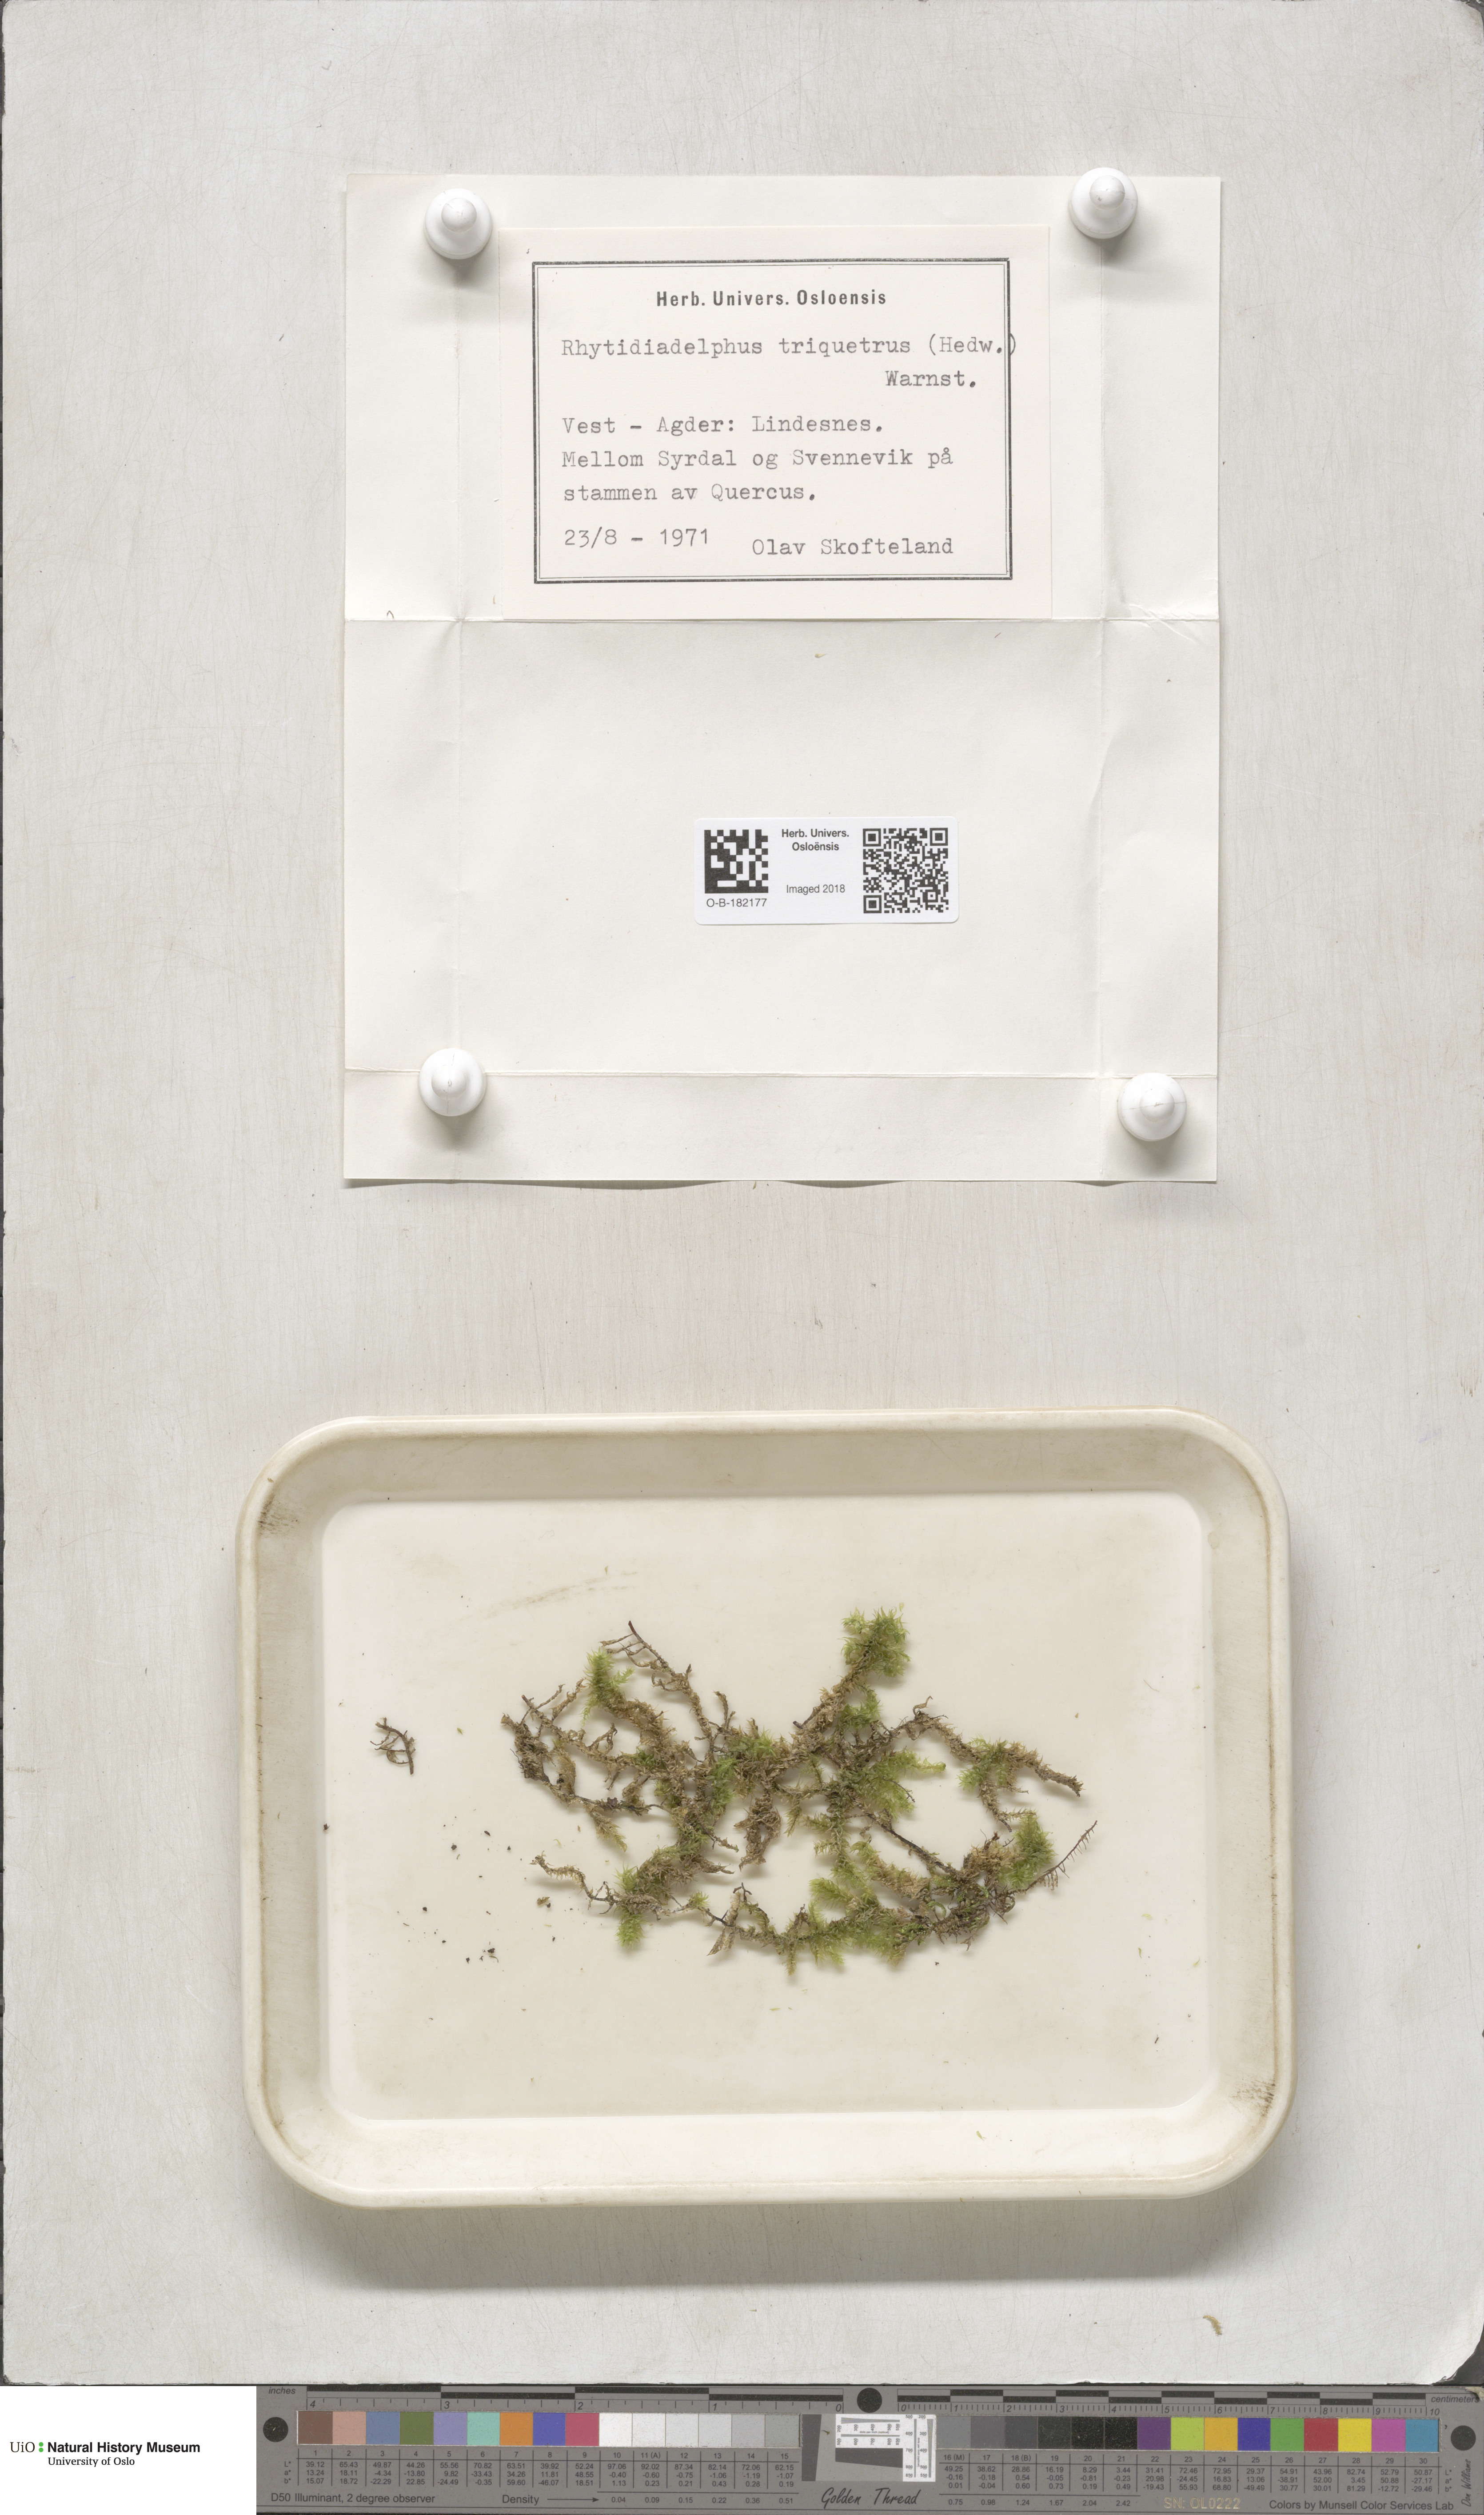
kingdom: Plantae
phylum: Bryophyta
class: Bryopsida
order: Hypnales
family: Hylocomiaceae
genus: Hylocomiadelphus
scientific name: Hylocomiadelphus triquetrus
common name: Rough goose neck moss
